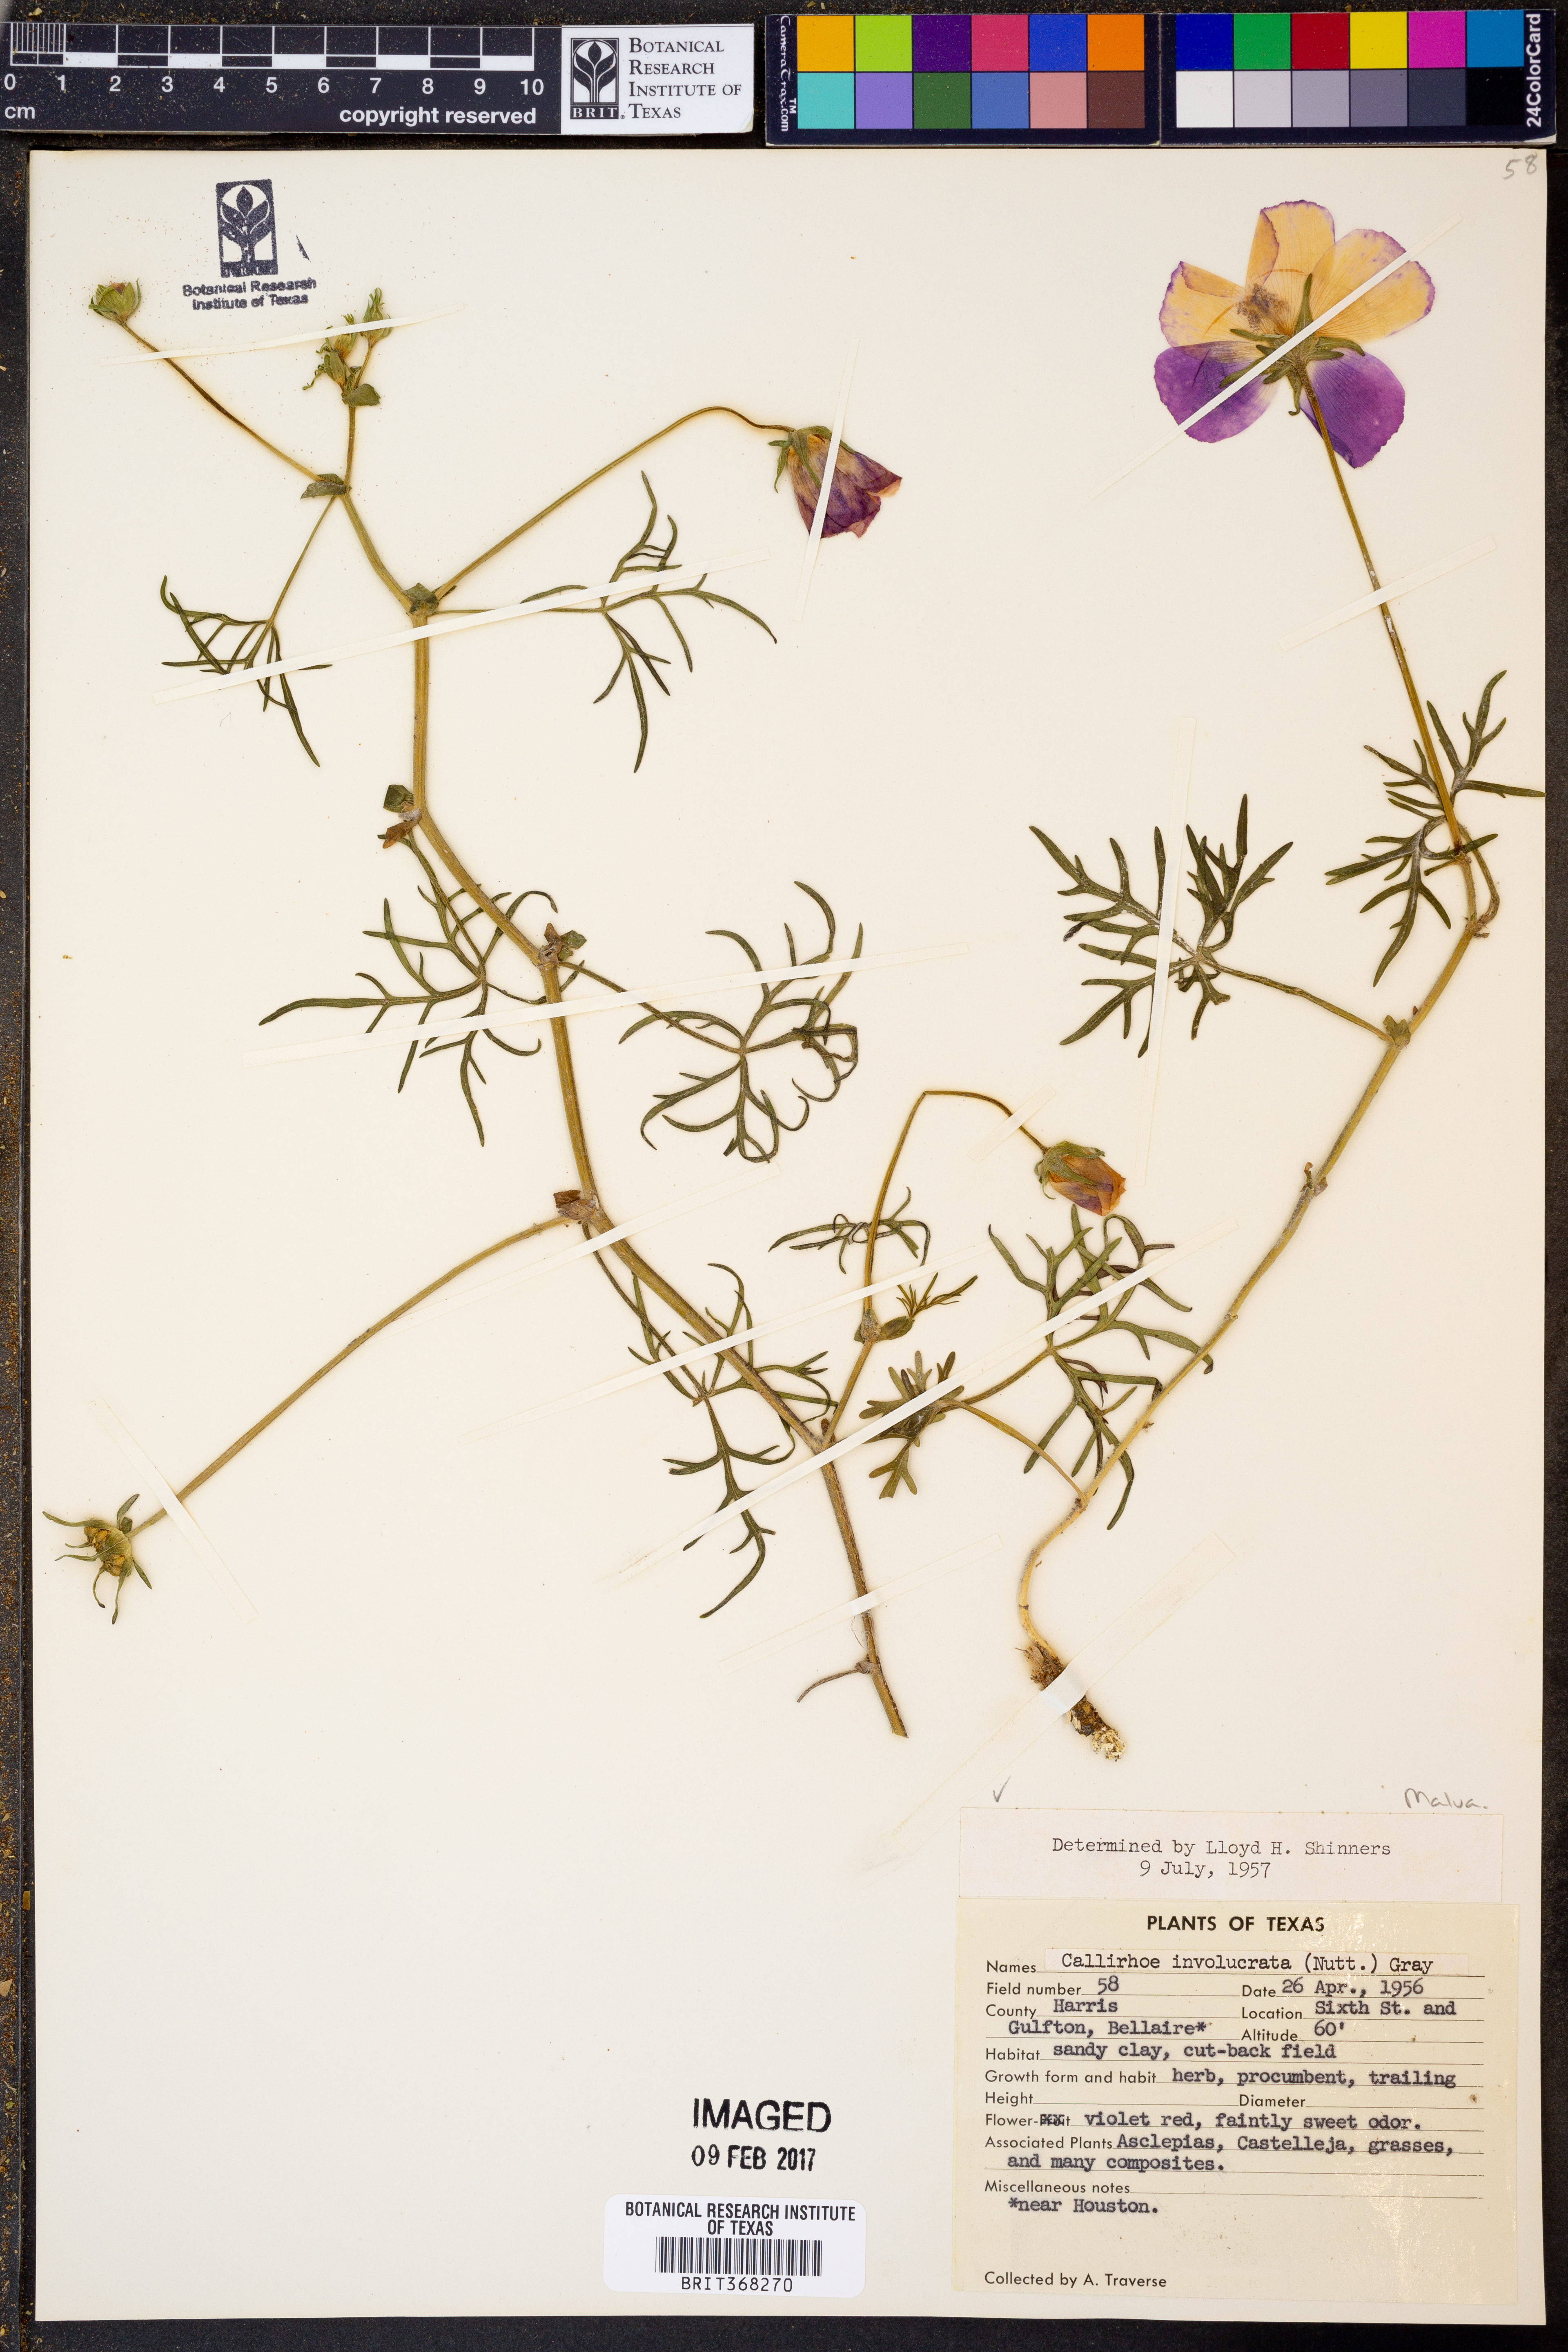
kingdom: Plantae
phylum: Tracheophyta
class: Magnoliopsida
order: Malvales
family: Malvaceae
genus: Callirhoe
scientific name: Callirhoe involucrata
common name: Purple poppy-mallow
